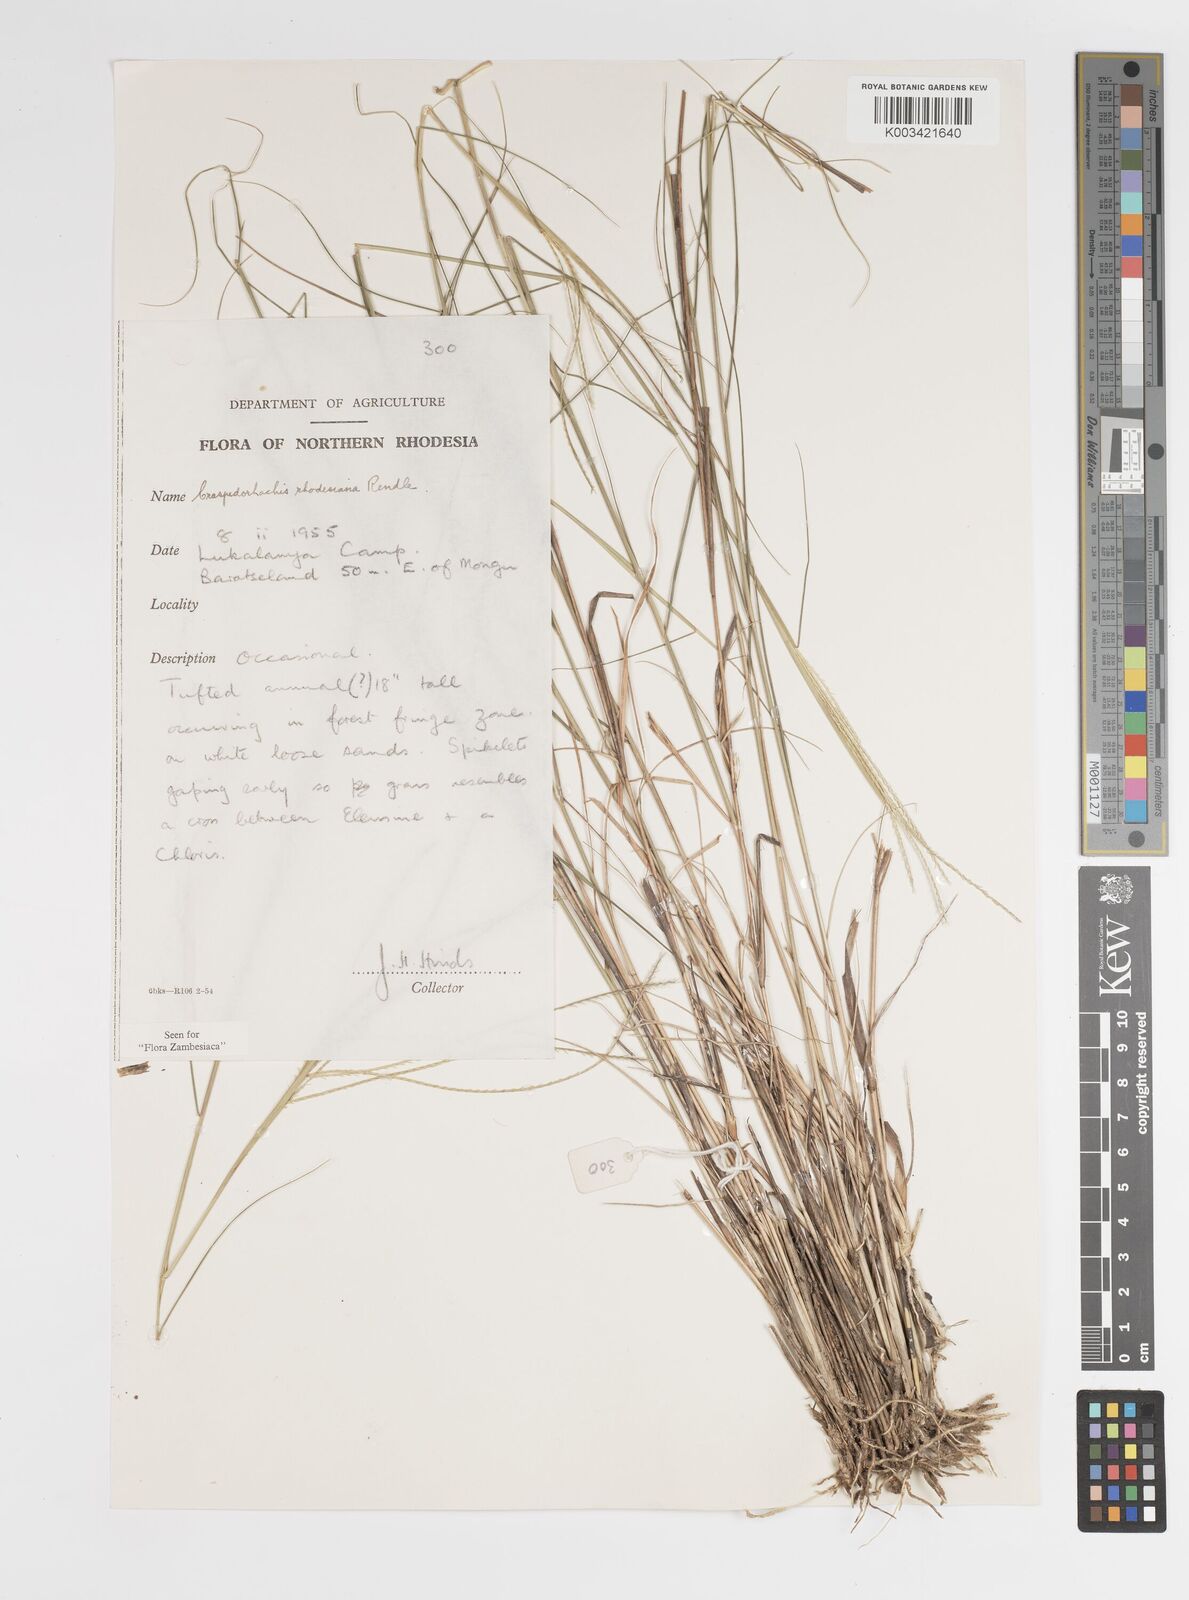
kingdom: Plantae
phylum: Tracheophyta
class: Liliopsida
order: Poales
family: Poaceae
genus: Craspedorhachis
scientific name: Craspedorhachis rhodesiana
